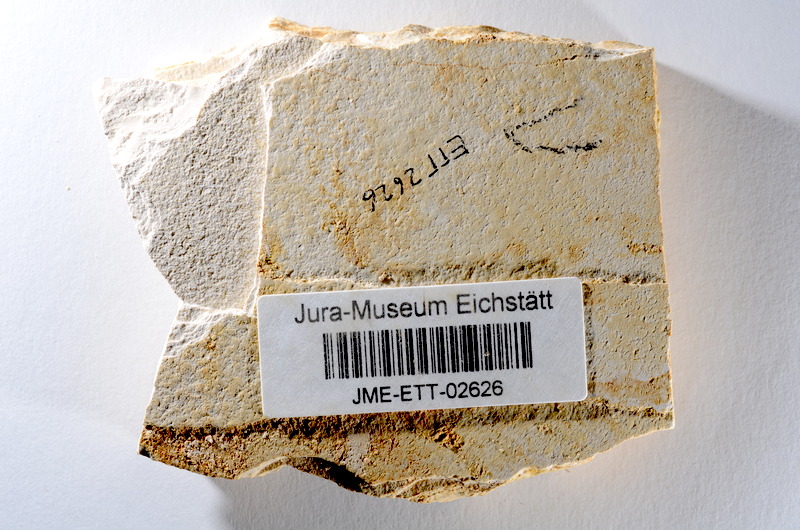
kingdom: Animalia
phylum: Chordata
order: Salmoniformes
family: Orthogonikleithridae
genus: Orthogonikleithrus
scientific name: Orthogonikleithrus hoelli
